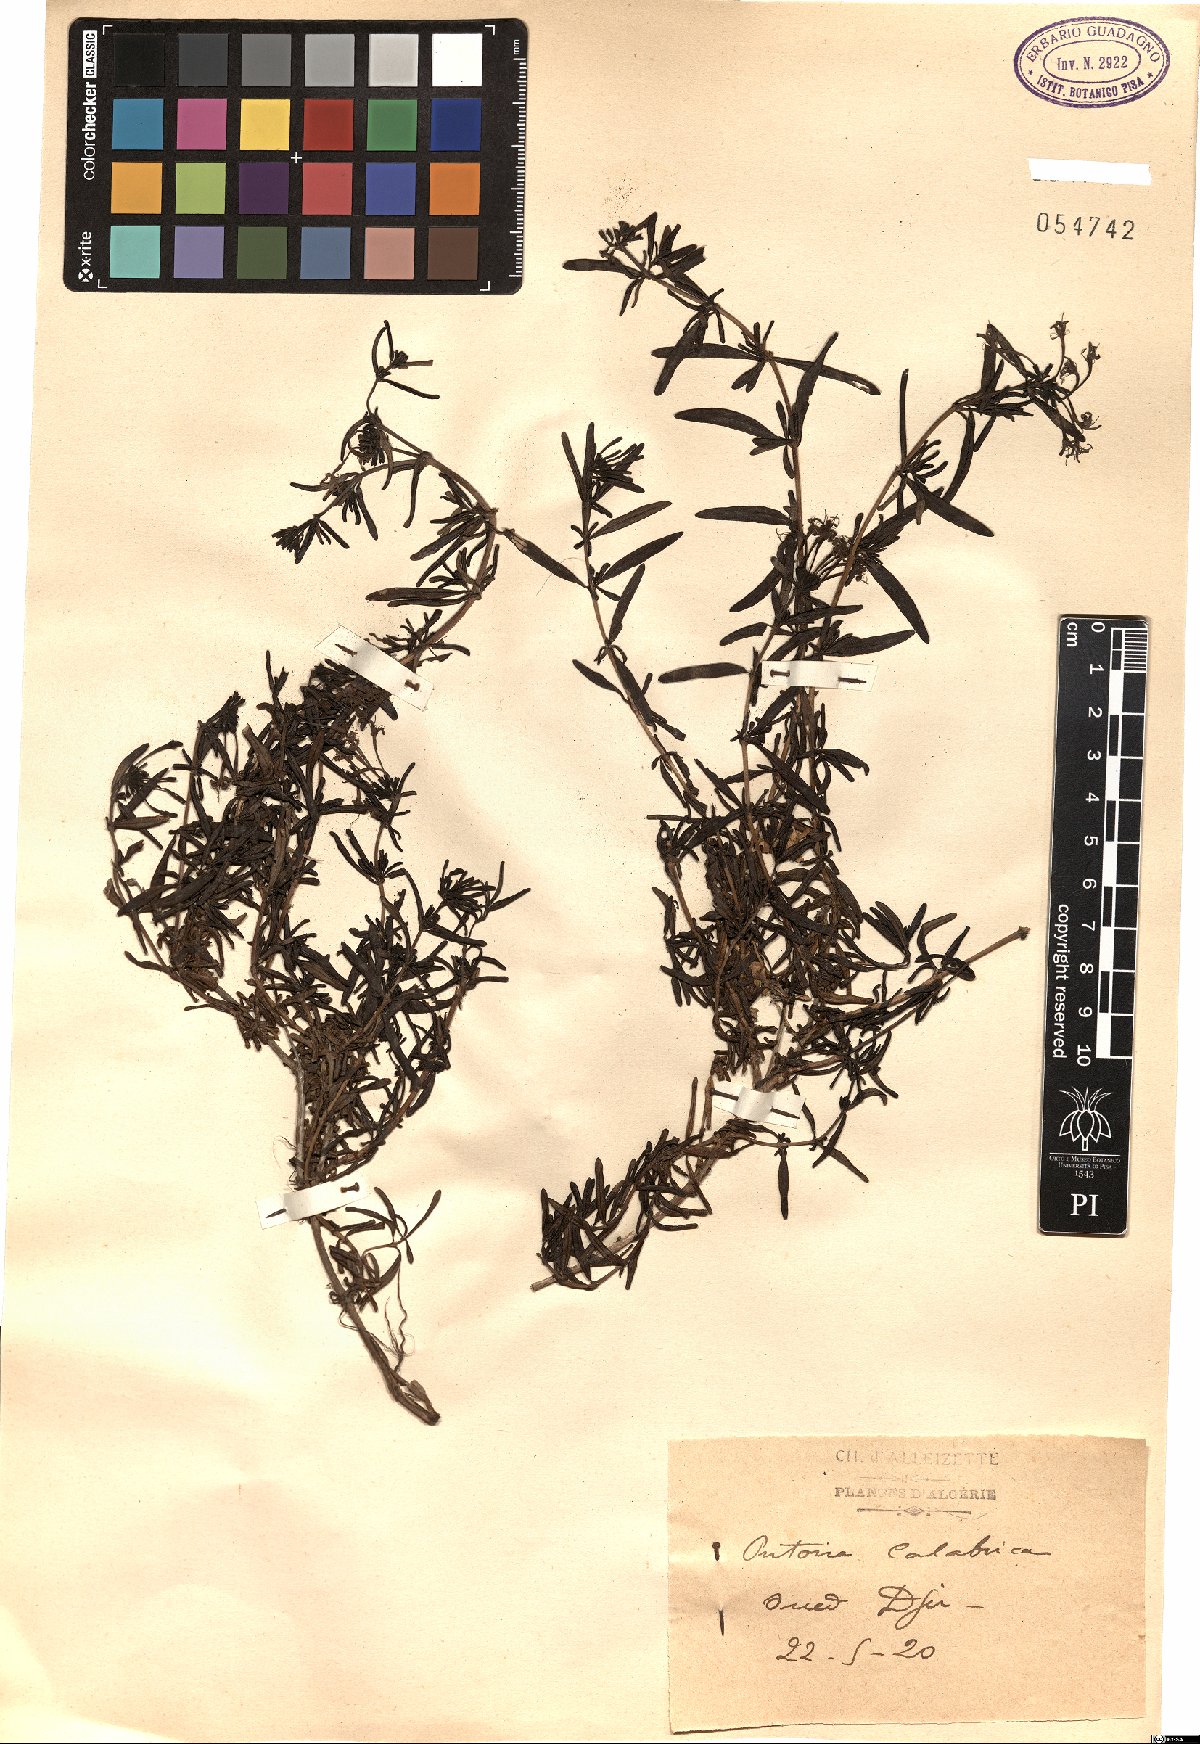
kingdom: Plantae
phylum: Tracheophyta
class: Magnoliopsida
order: Gentianales
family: Rubiaceae
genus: Plocama
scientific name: Plocama calabrica
